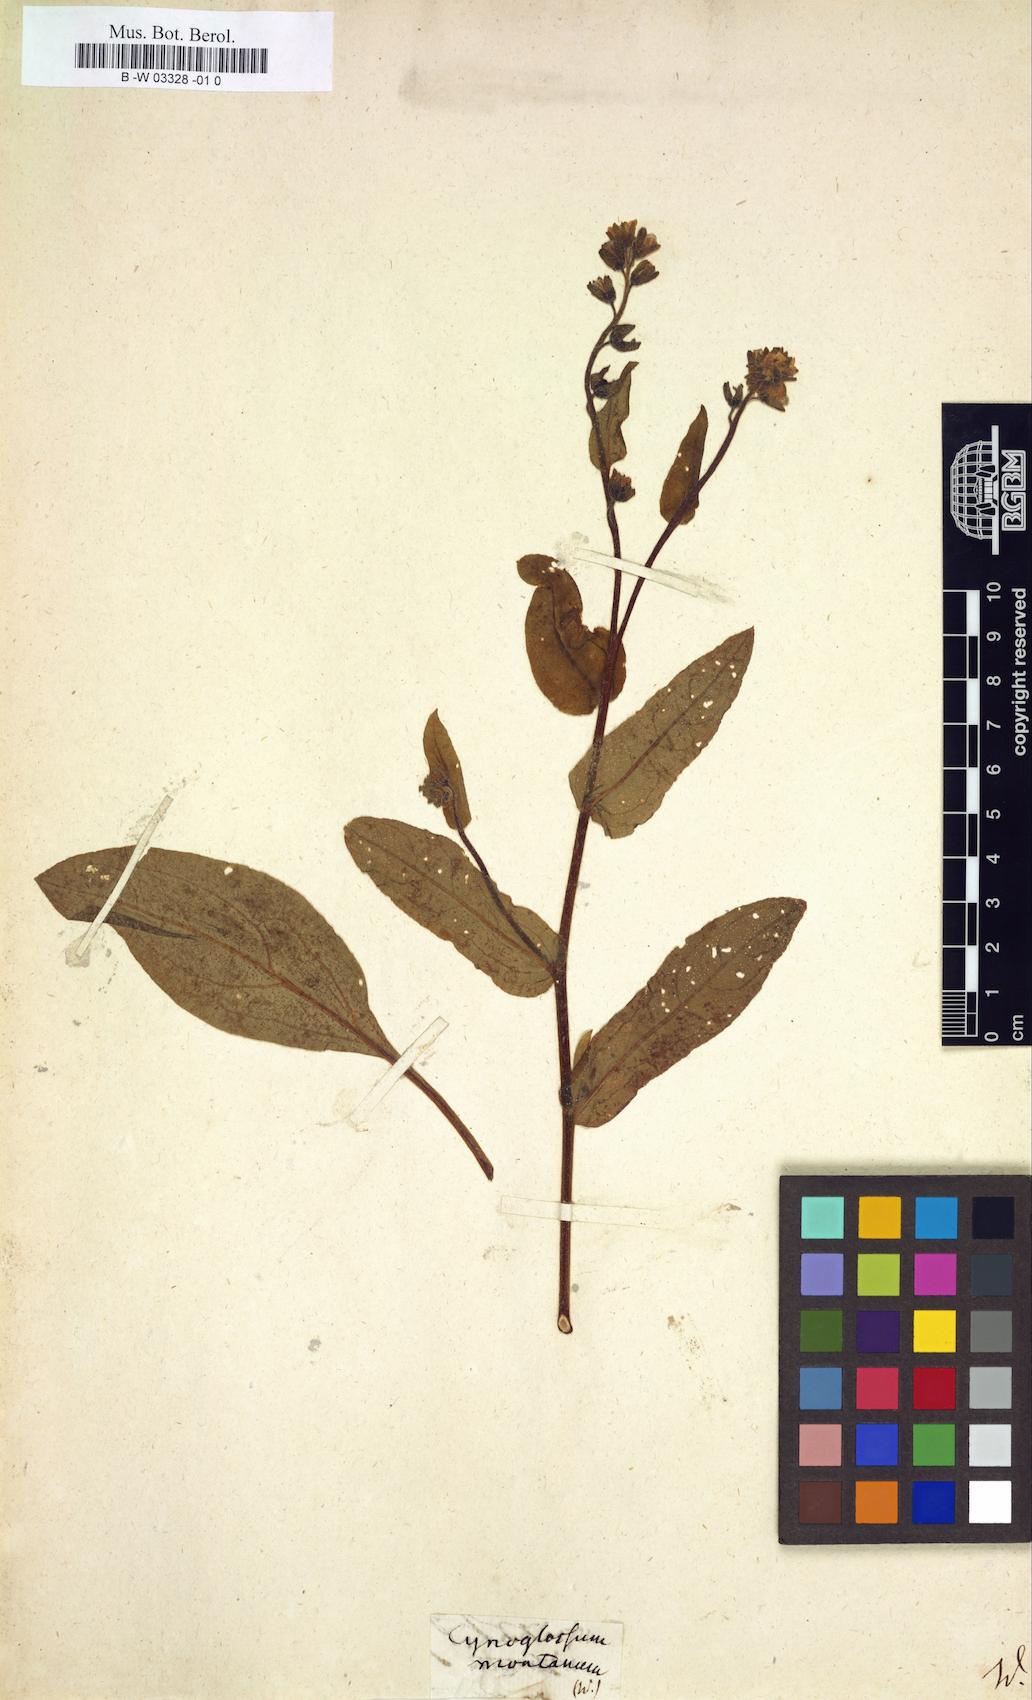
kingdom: Plantae
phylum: Tracheophyta
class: Magnoliopsida
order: Boraginales
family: Boraginaceae
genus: Cynoglossum
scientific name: Cynoglossum montanum
